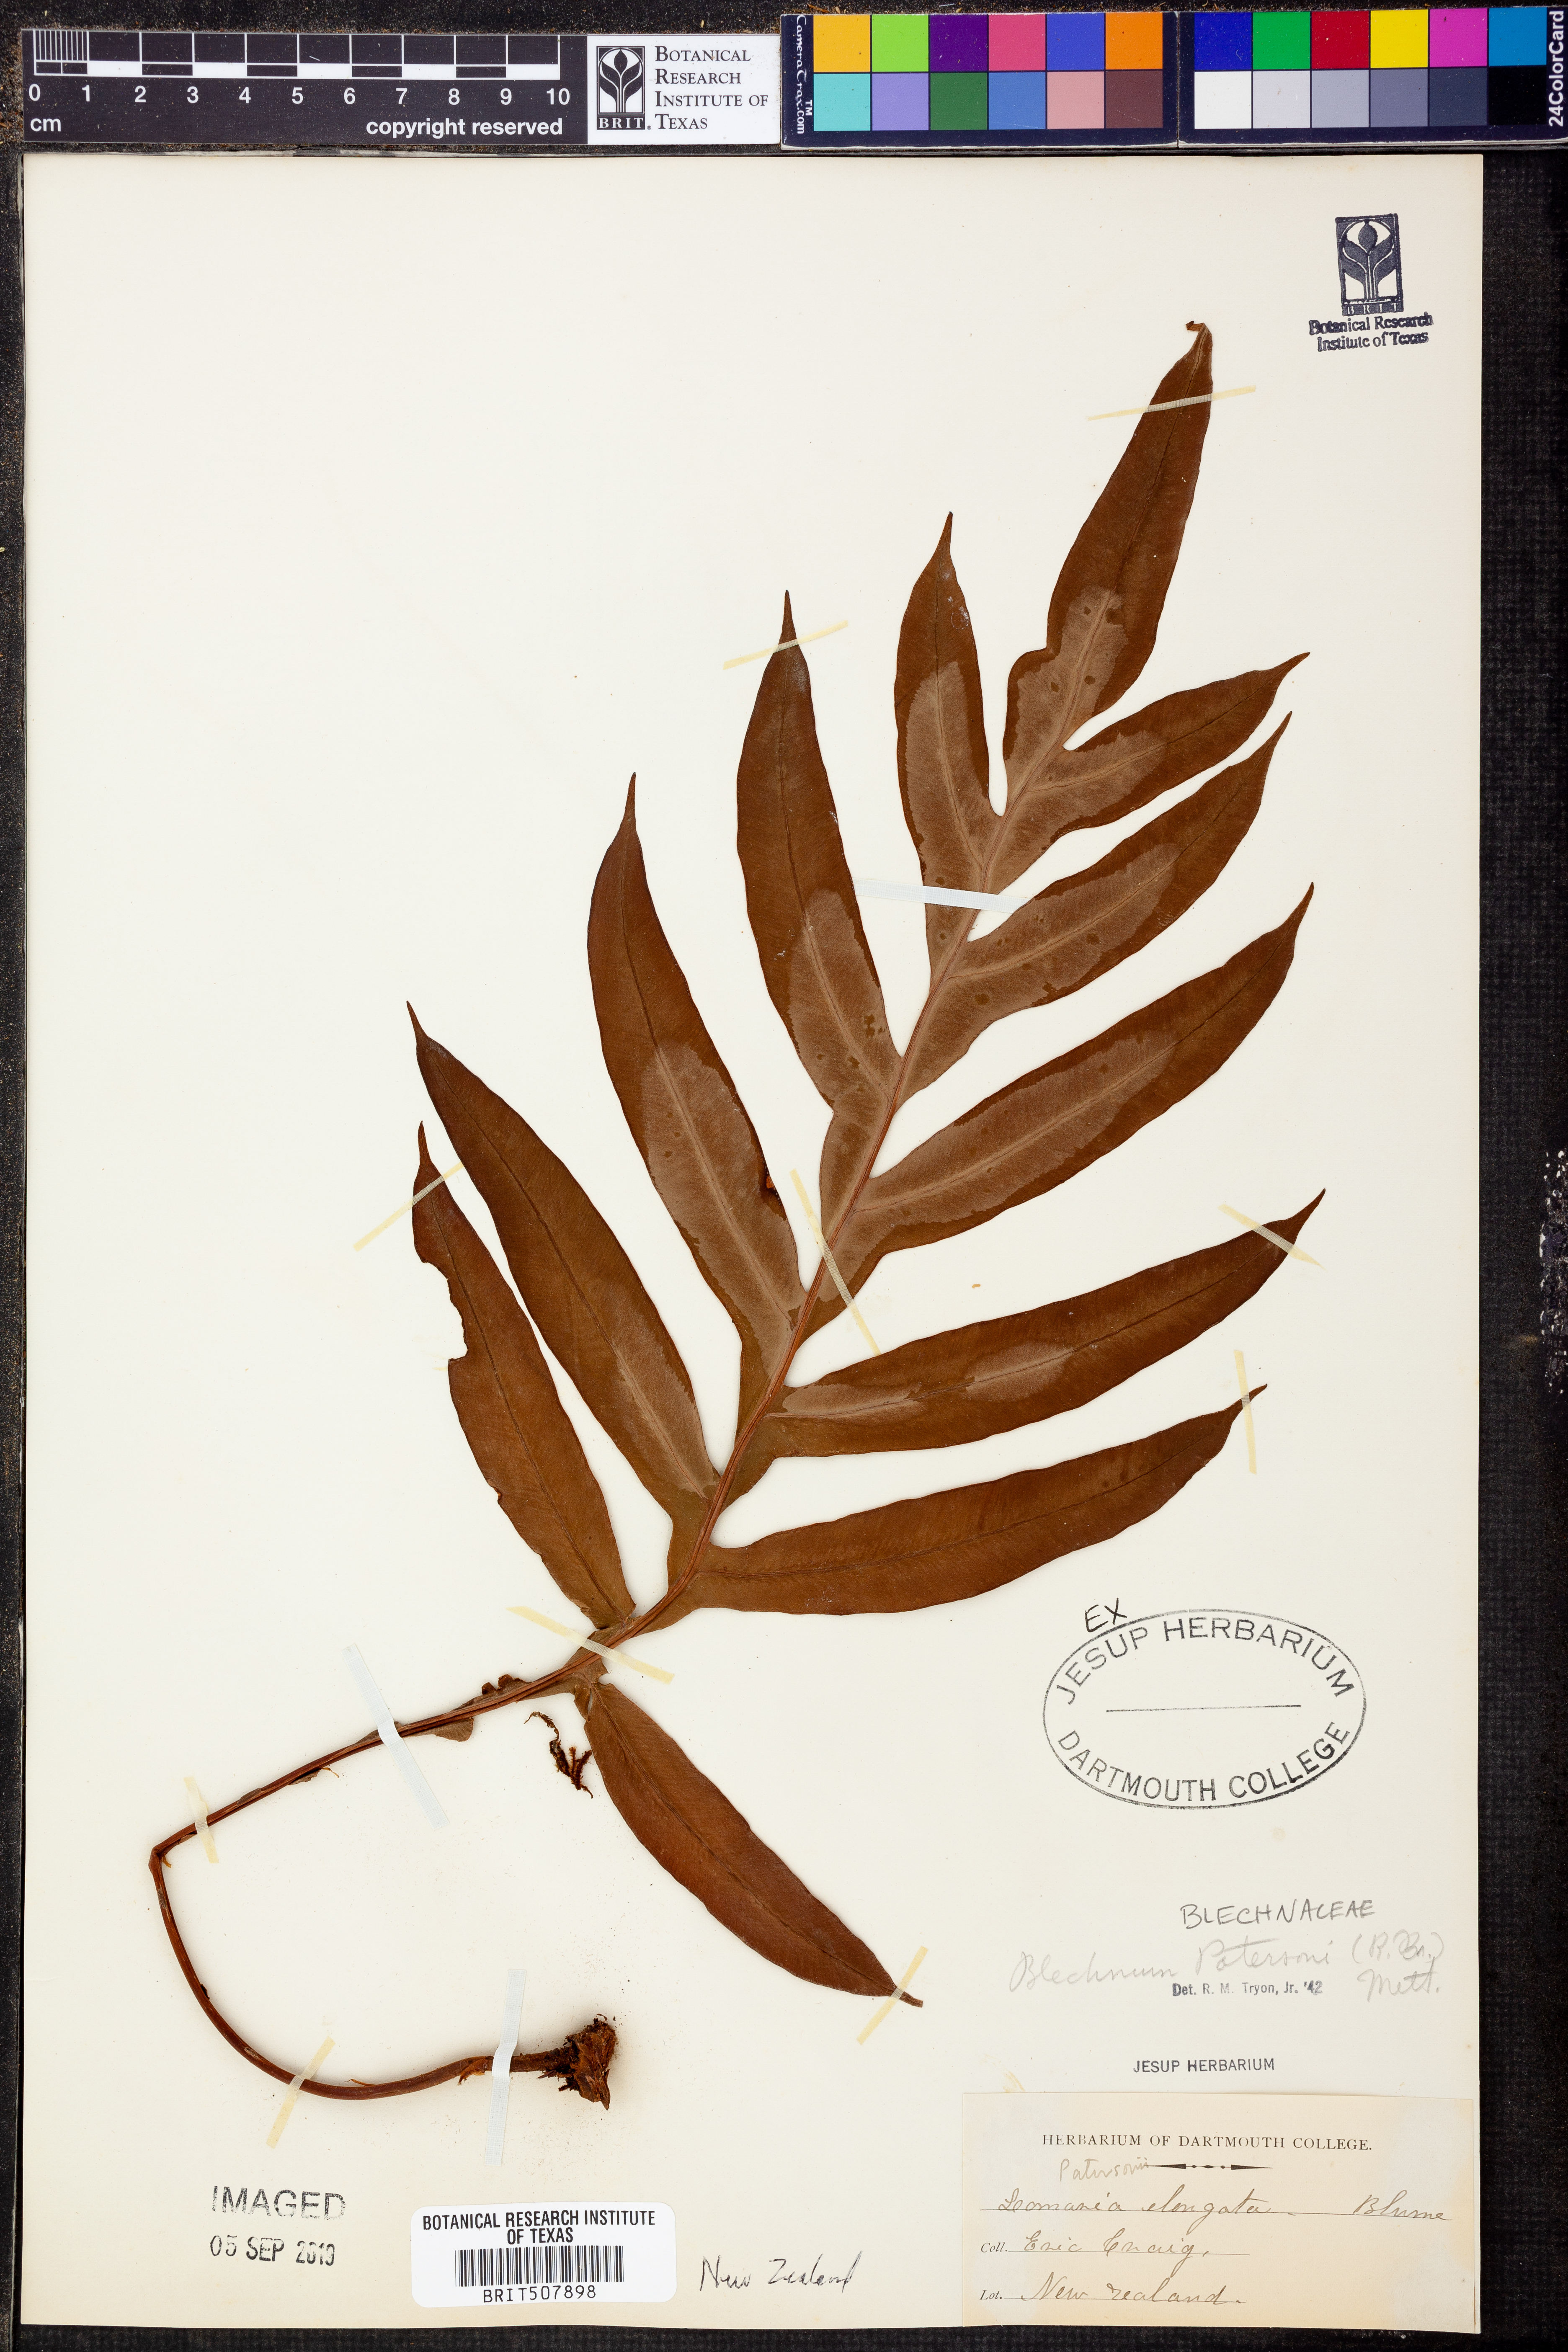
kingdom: Plantae
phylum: Tracheophyta
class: Polypodiopsida
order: Polypodiales
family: Blechnaceae
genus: Austroblechnum
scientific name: Austroblechnum patersonii
